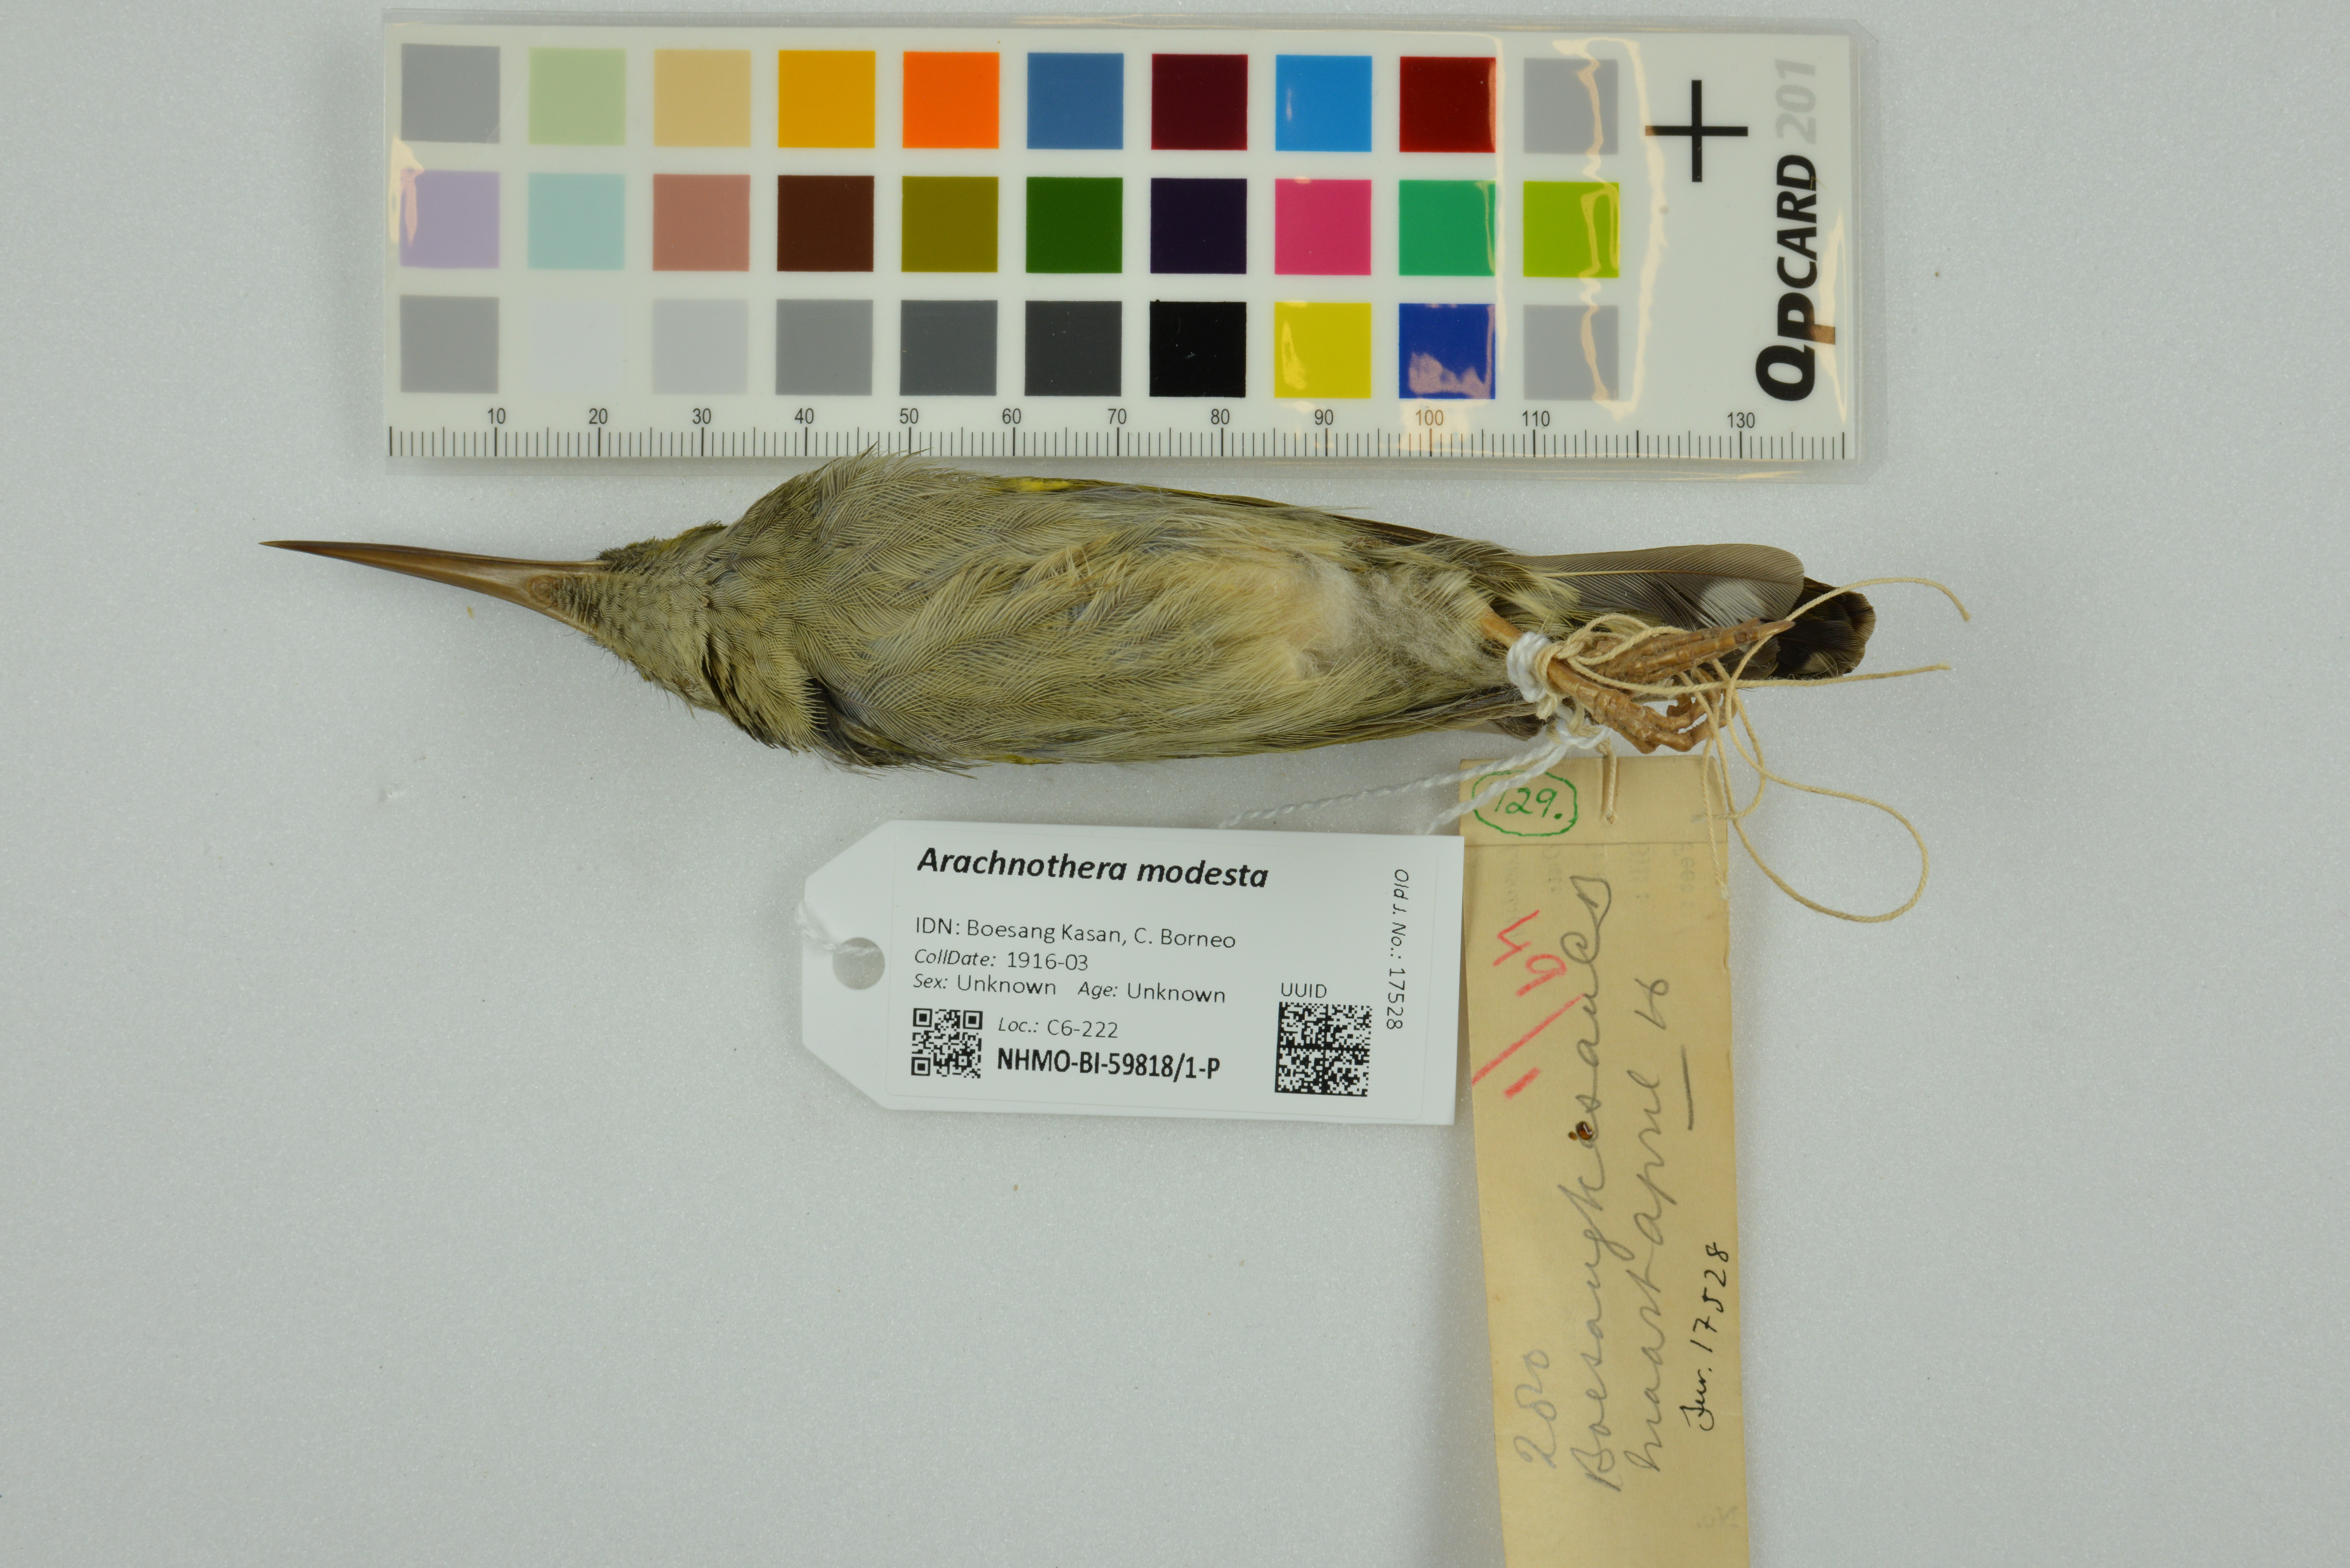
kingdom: Animalia
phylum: Chordata
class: Aves
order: Passeriformes
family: Nectariniidae
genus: Arachnothera
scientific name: Arachnothera modesta
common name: Grey-breasted spiderhunter
